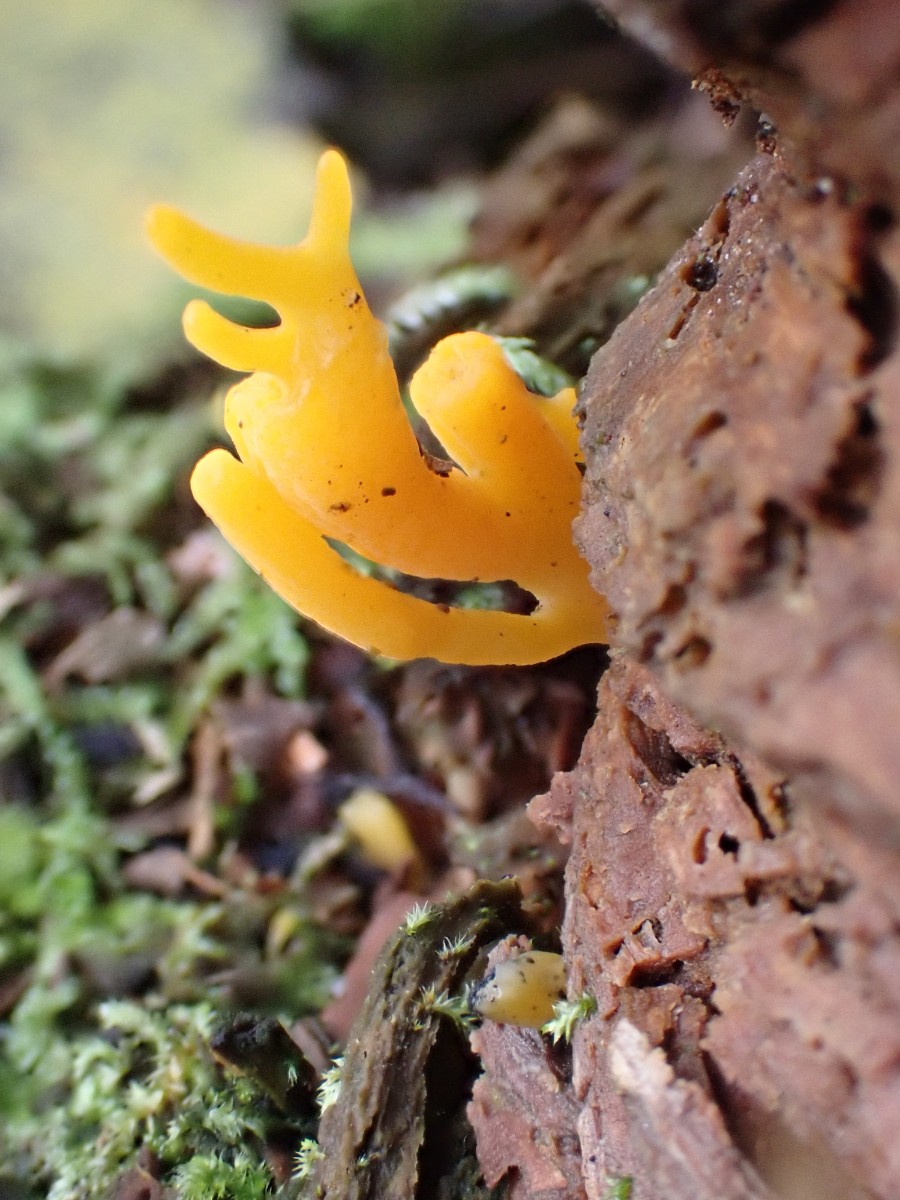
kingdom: Fungi
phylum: Basidiomycota
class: Dacrymycetes
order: Dacrymycetales
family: Dacrymycetaceae
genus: Calocera
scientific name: Calocera viscosa
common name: almindelig guldgaffel
